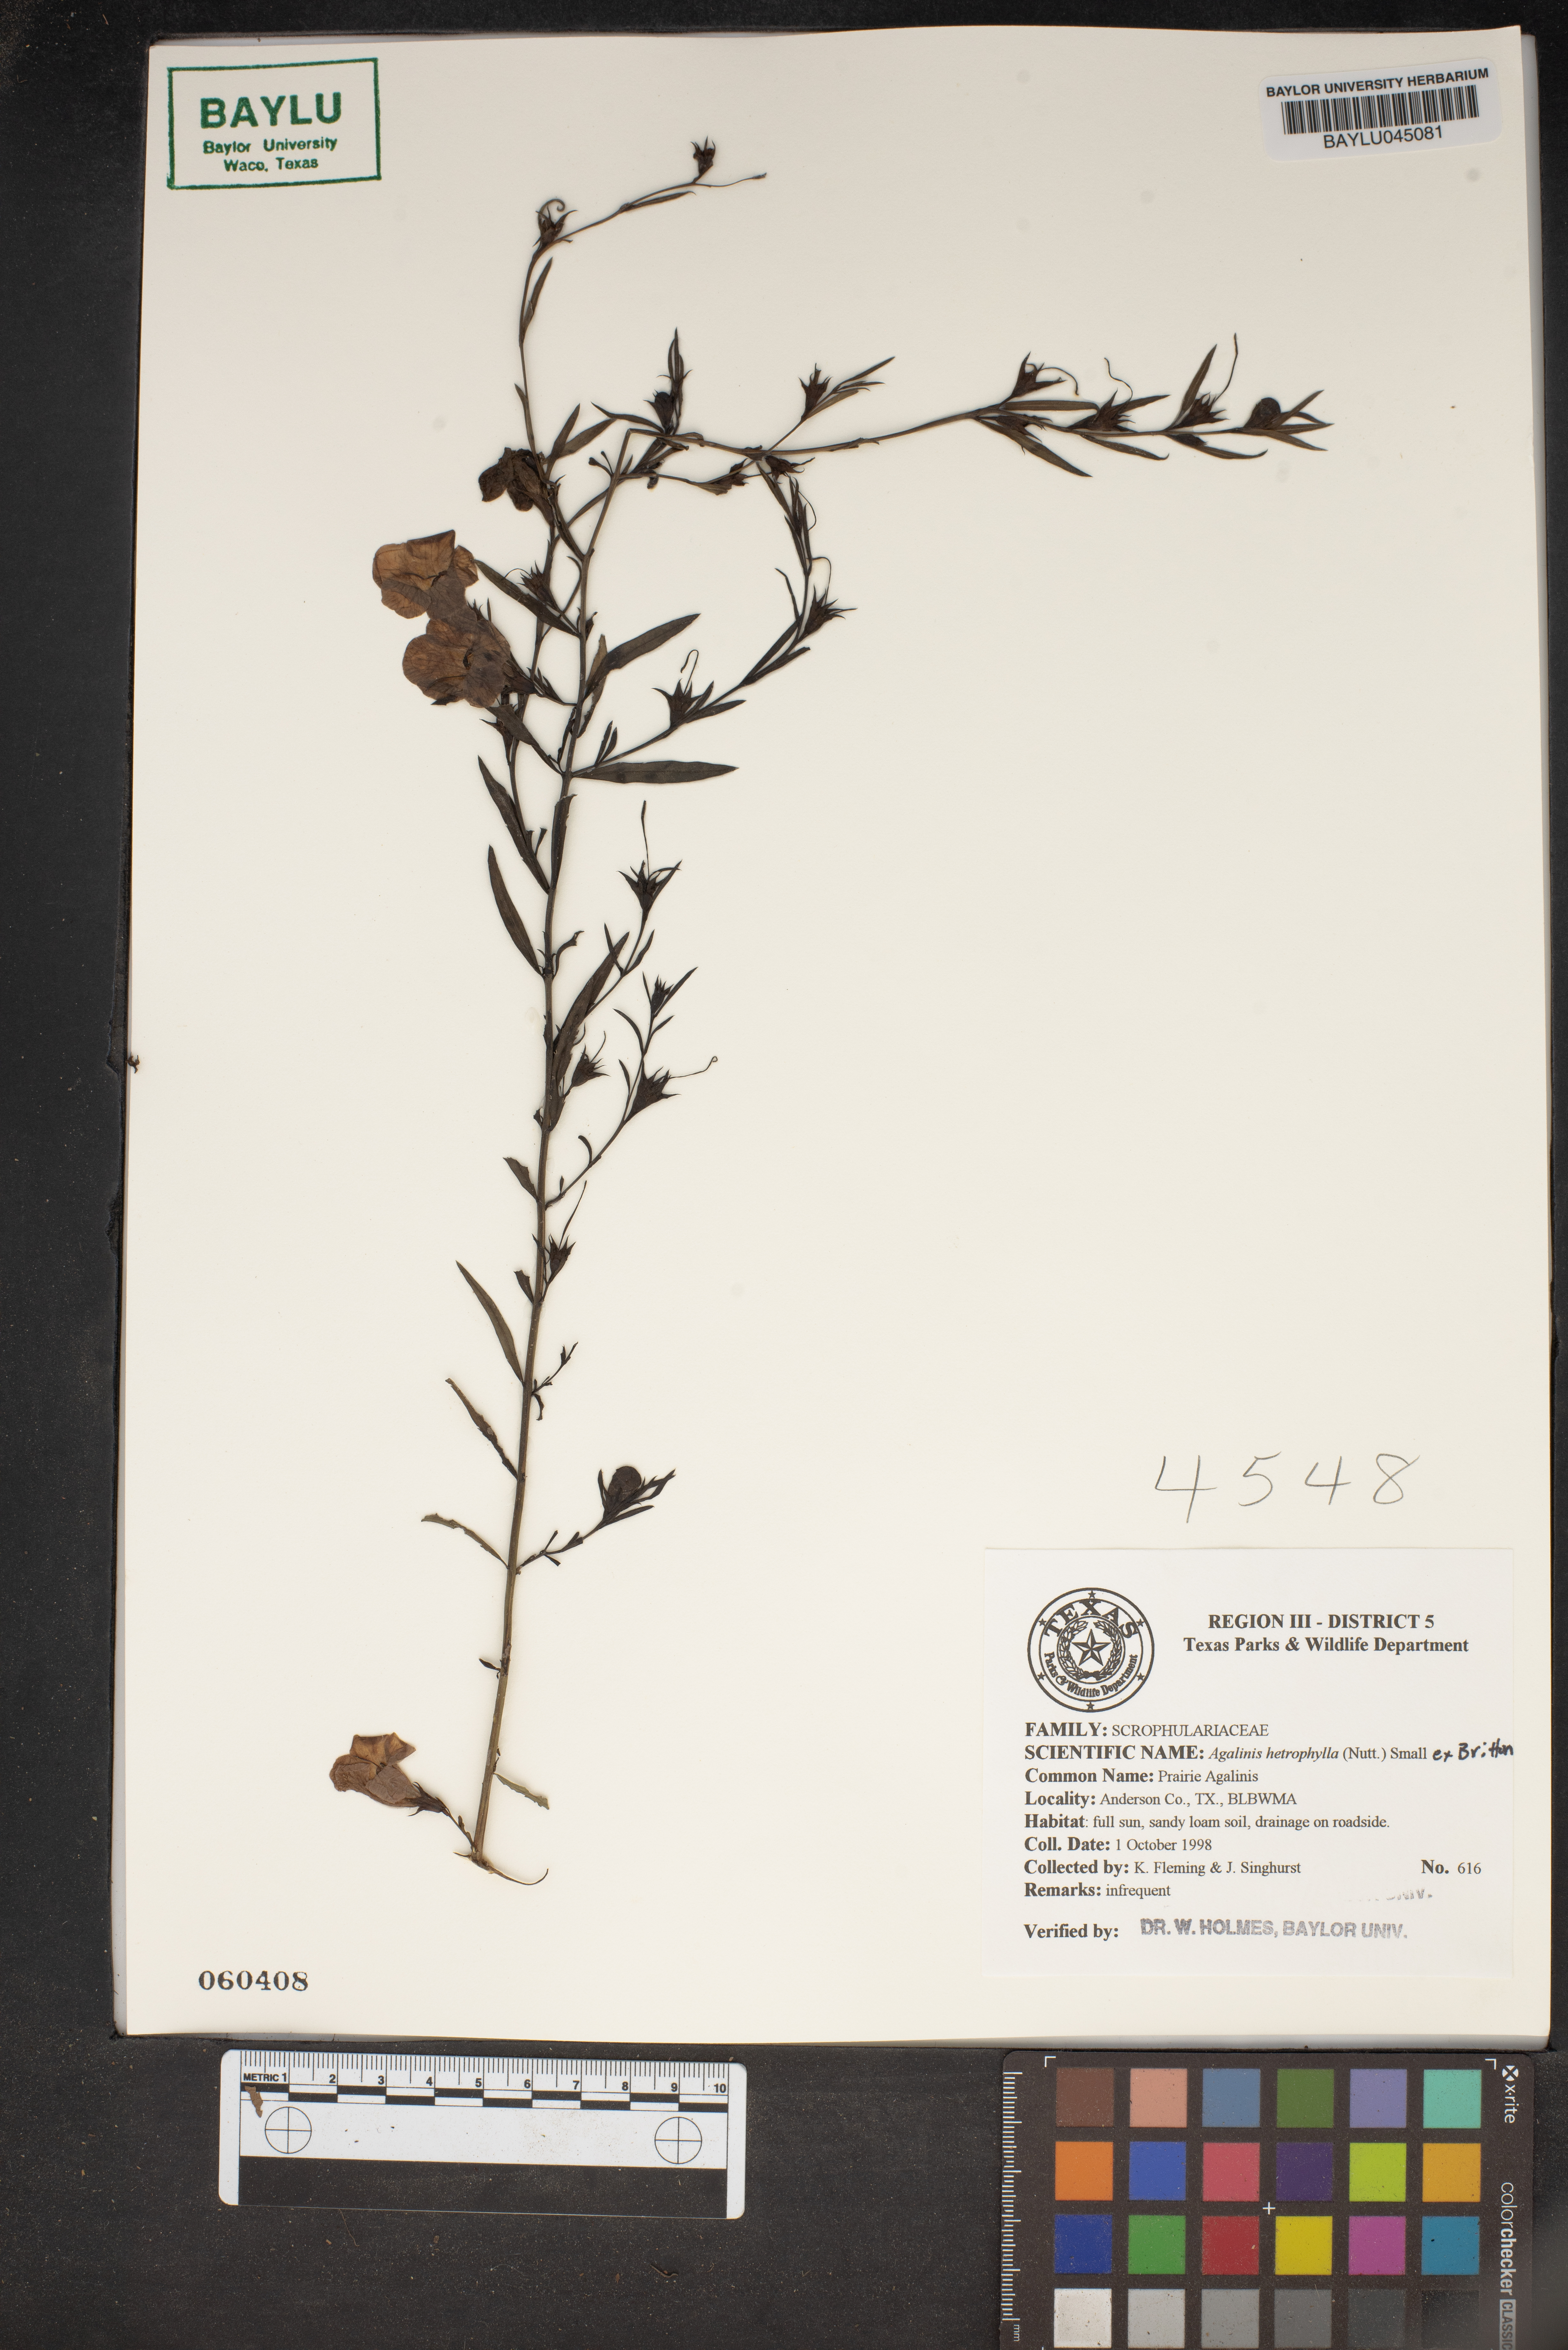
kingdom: Plantae
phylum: Tracheophyta
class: Magnoliopsida
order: Lamiales
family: Orobanchaceae
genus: Agalinis
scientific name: Agalinis heterophylla
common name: Prairie agalinis
